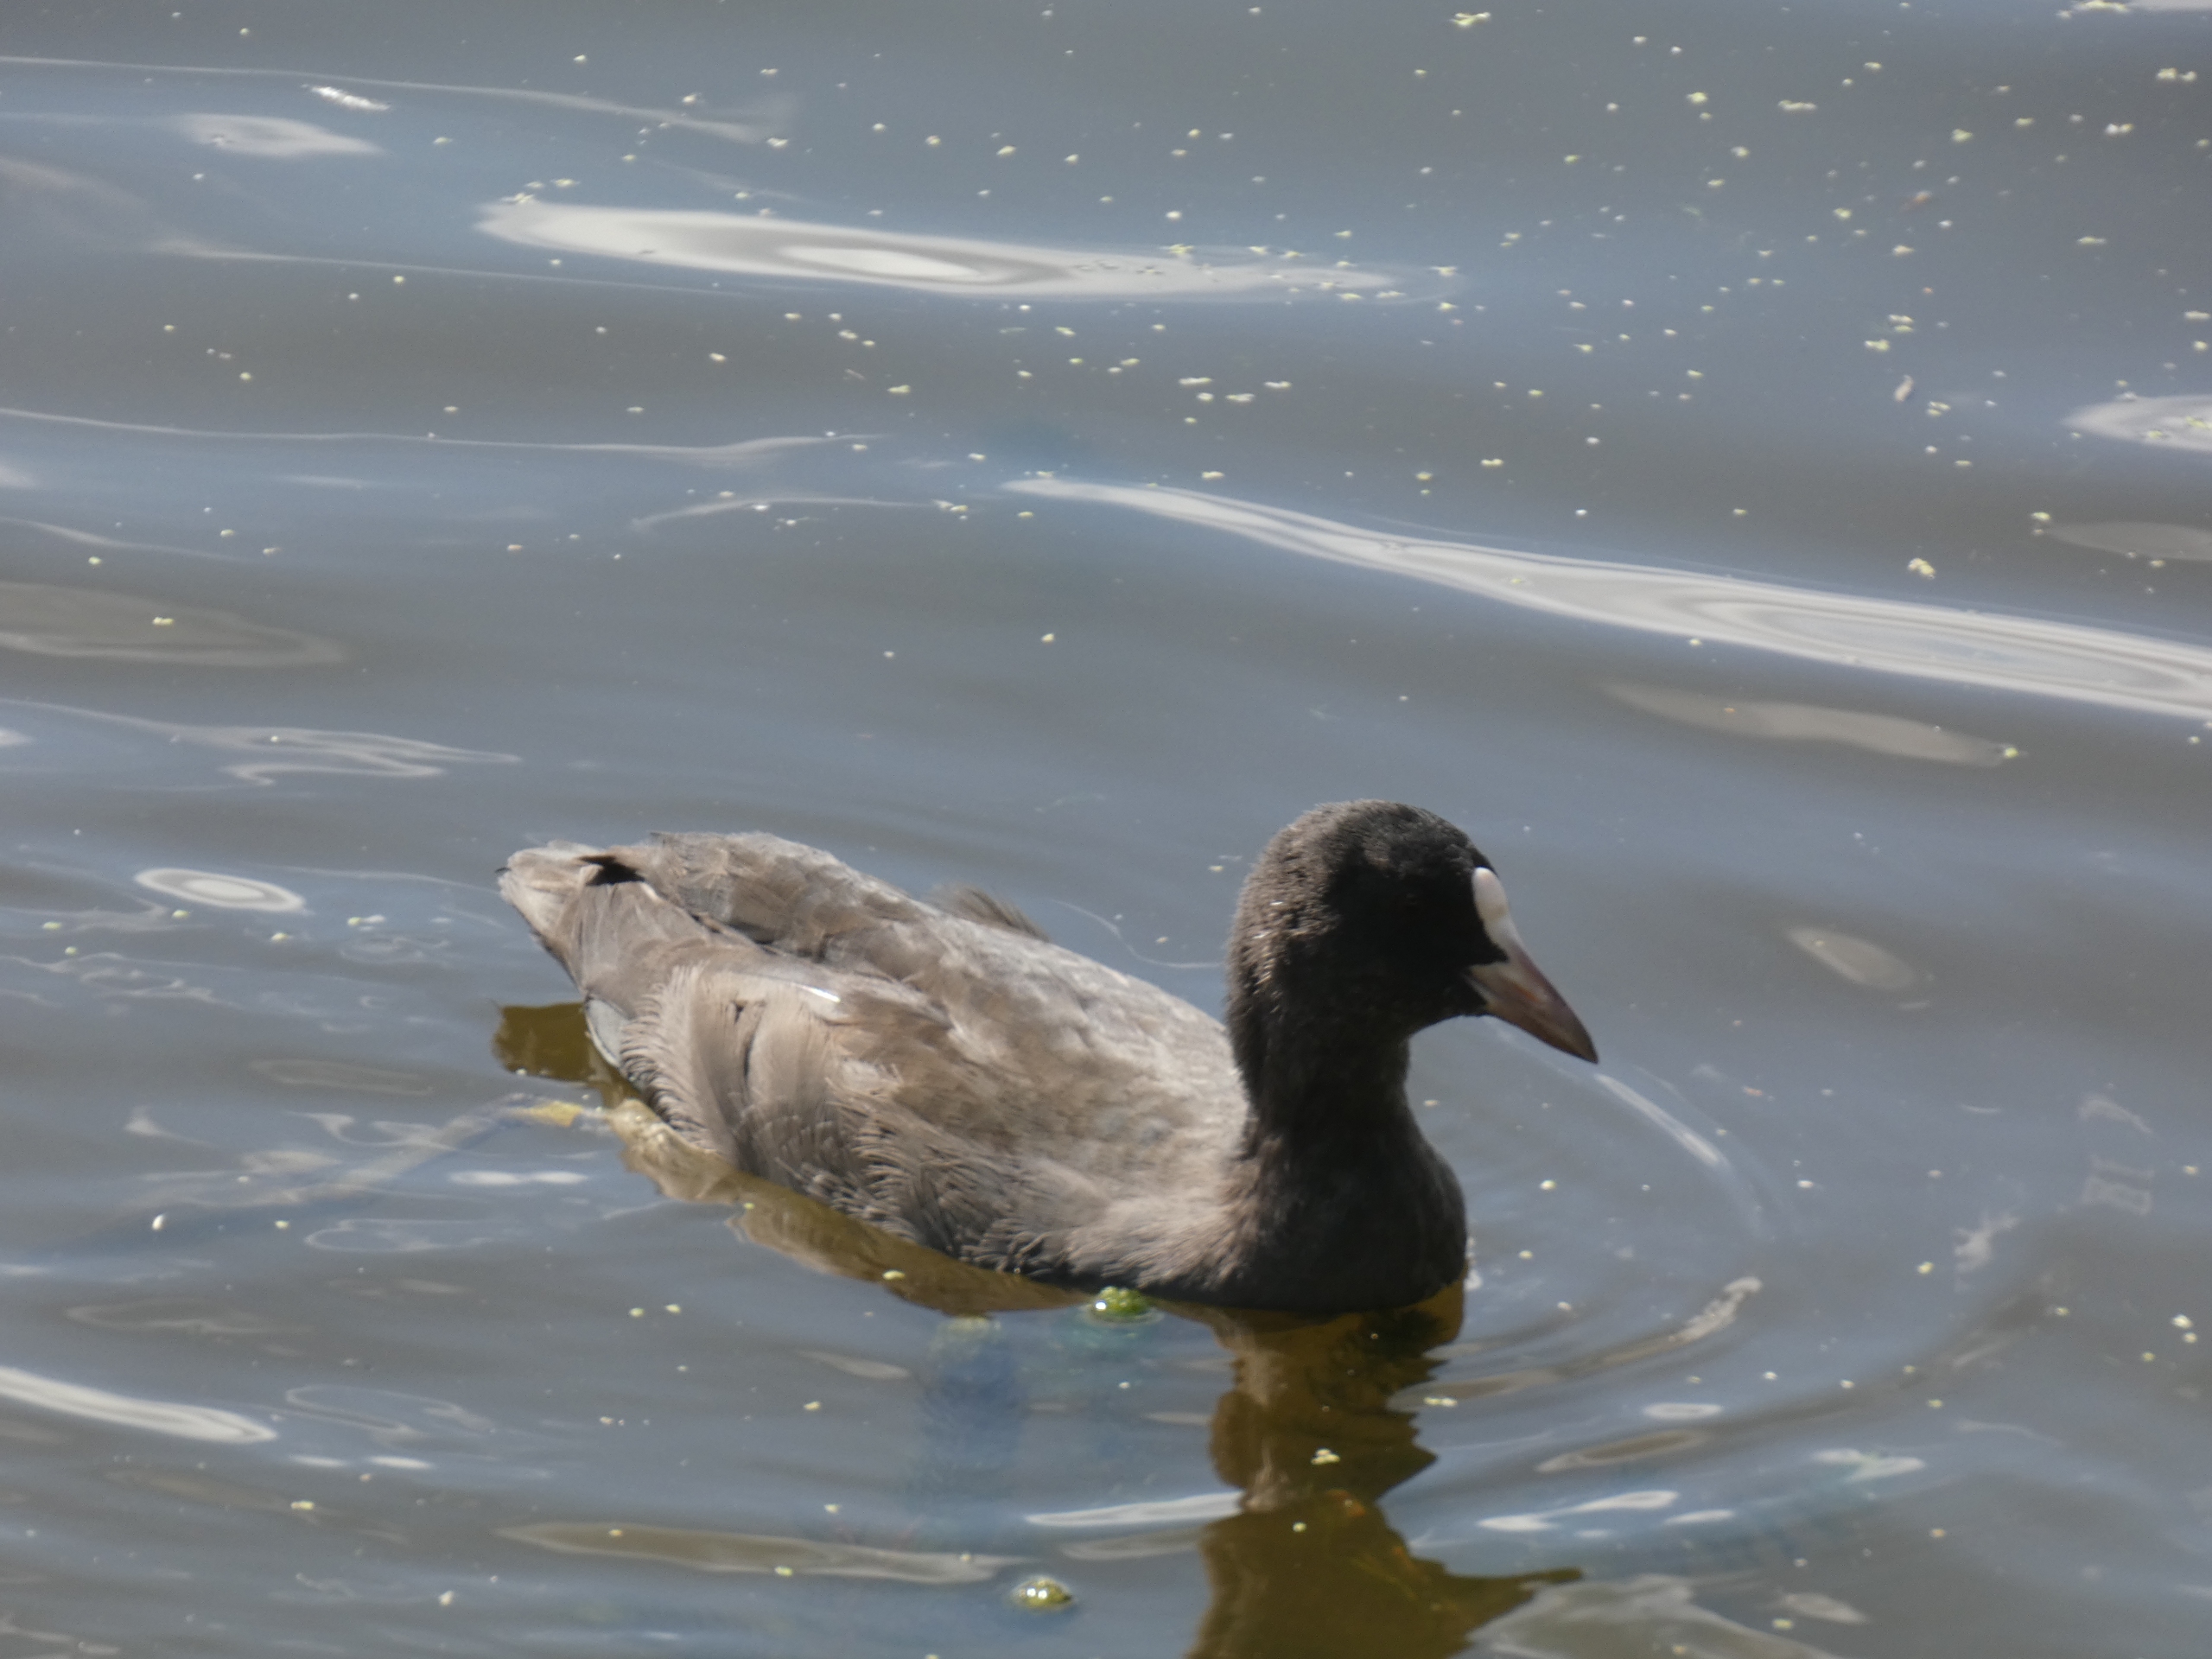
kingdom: Animalia
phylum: Chordata
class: Aves
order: Gruiformes
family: Rallidae
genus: Fulica
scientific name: Fulica atra
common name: Blishøne
